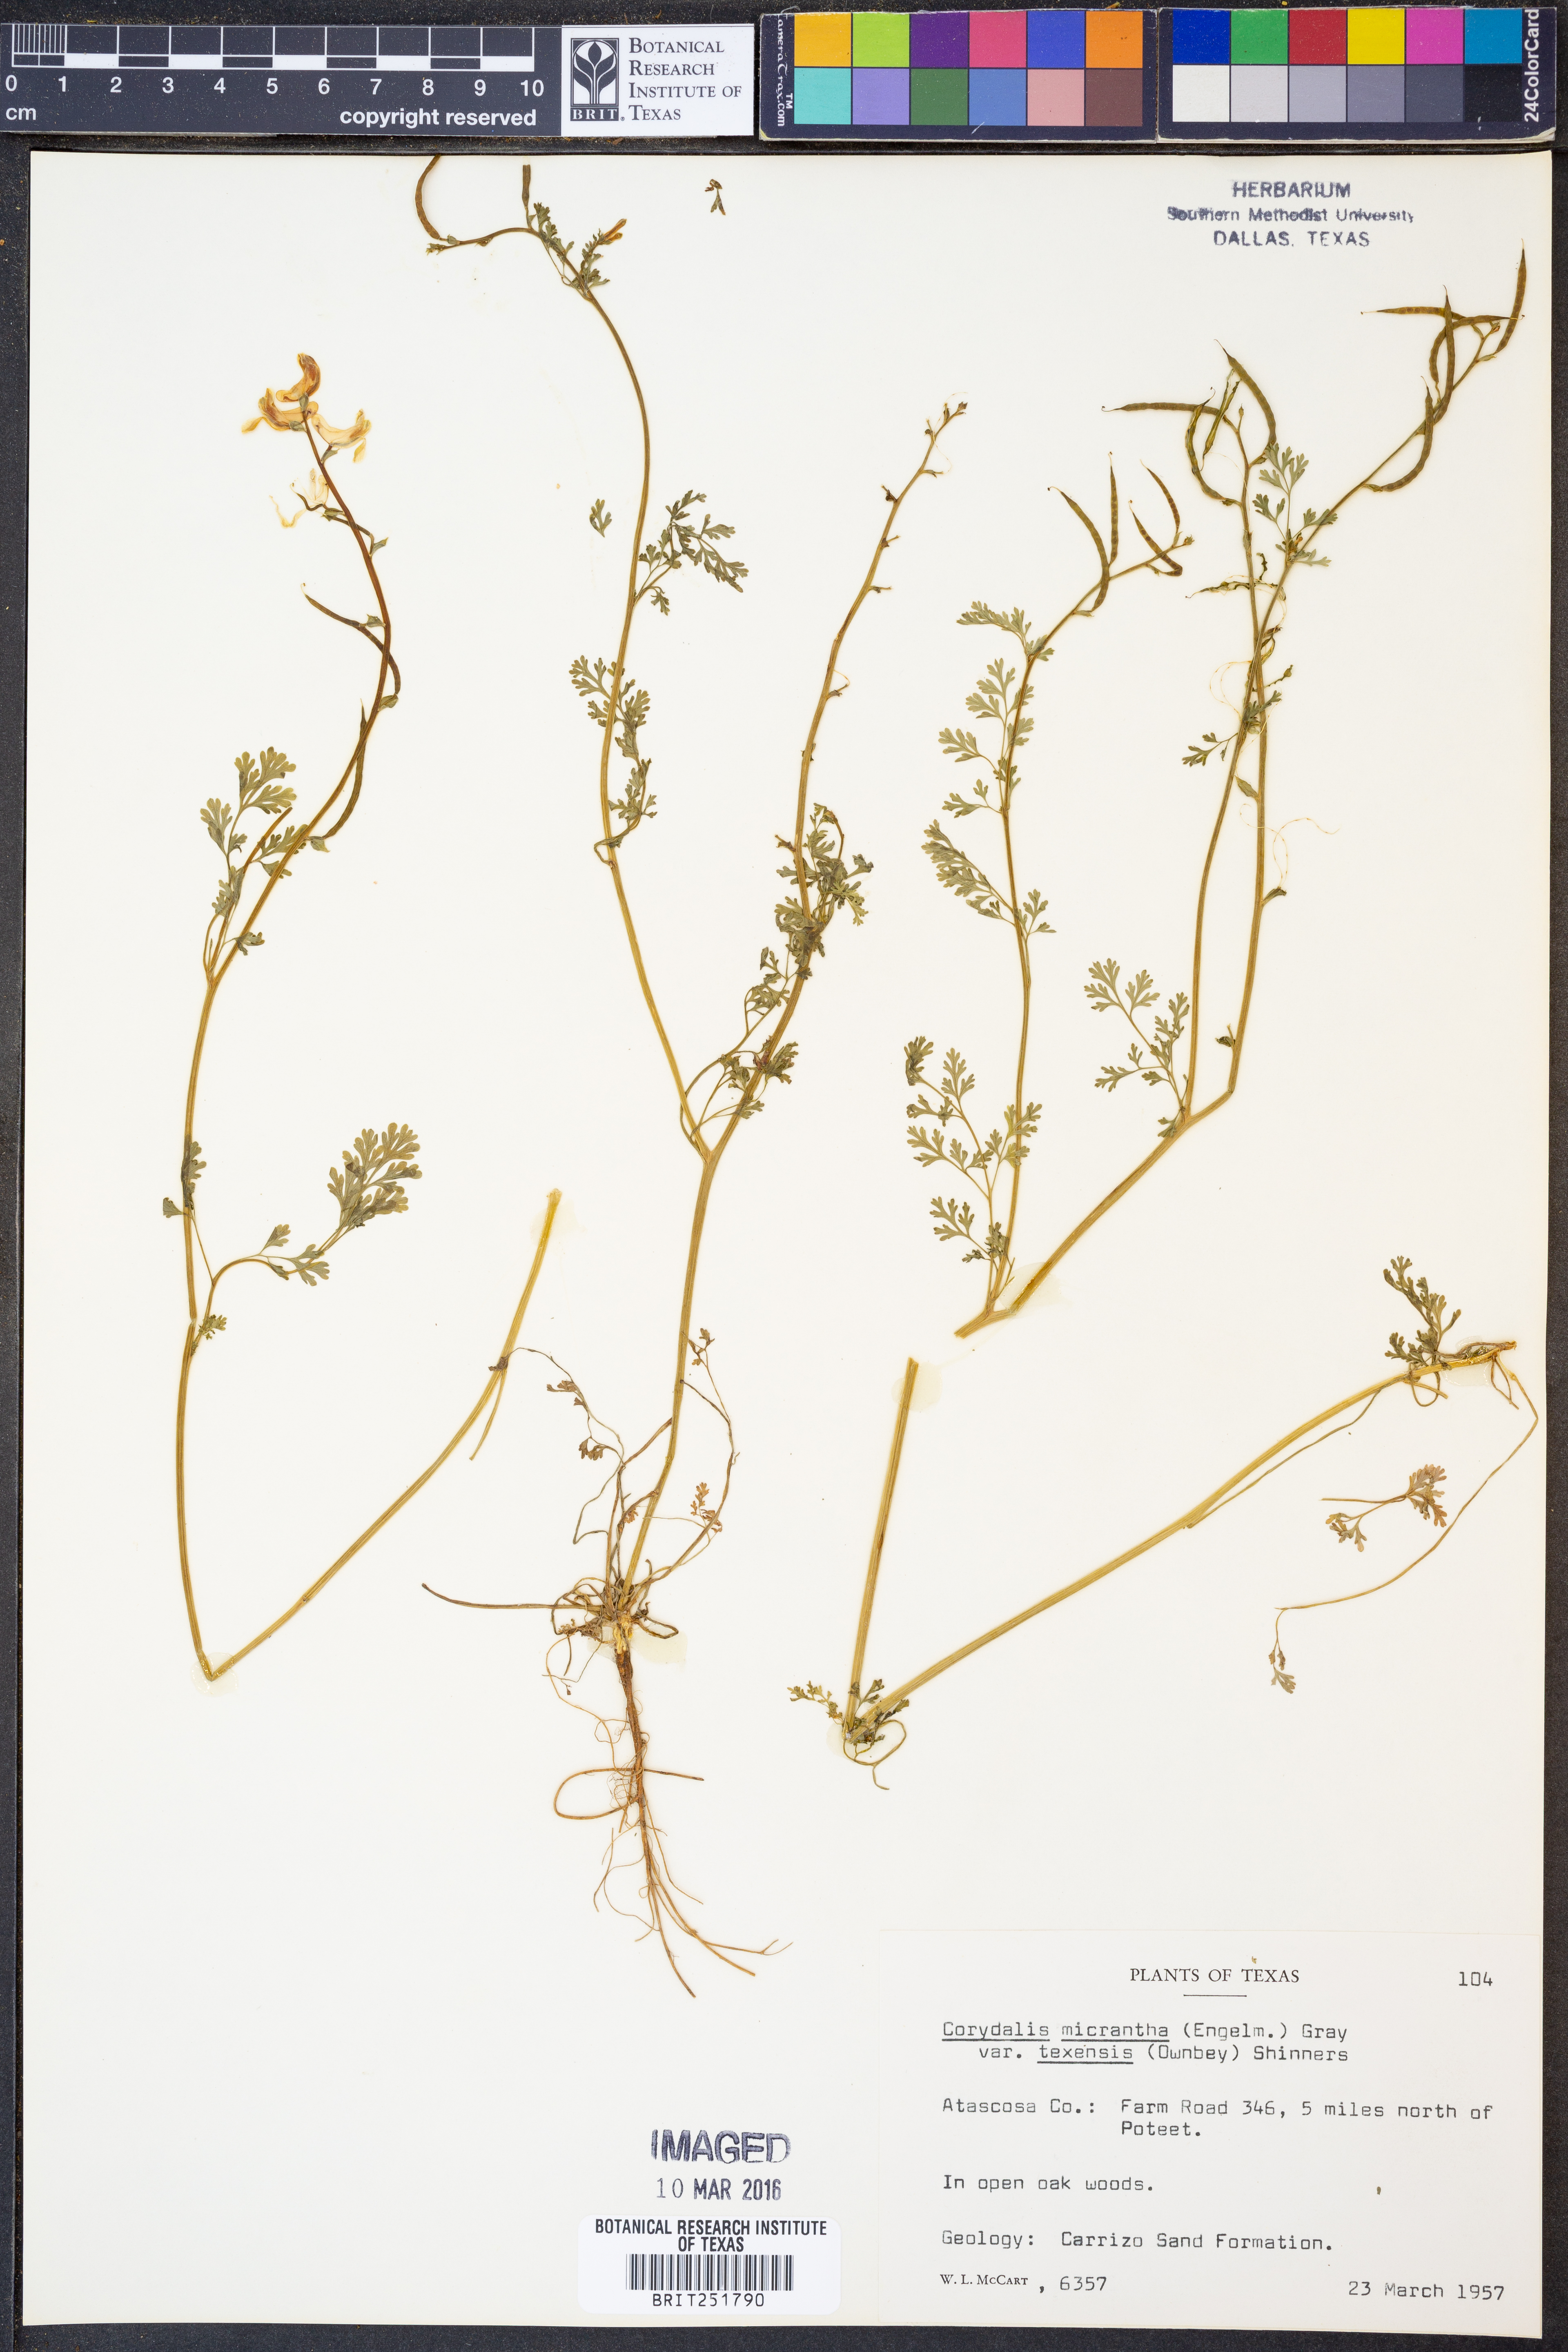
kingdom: Plantae
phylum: Tracheophyta
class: Magnoliopsida
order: Ranunculales
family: Papaveraceae
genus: Corydalis
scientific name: Corydalis micrantha
